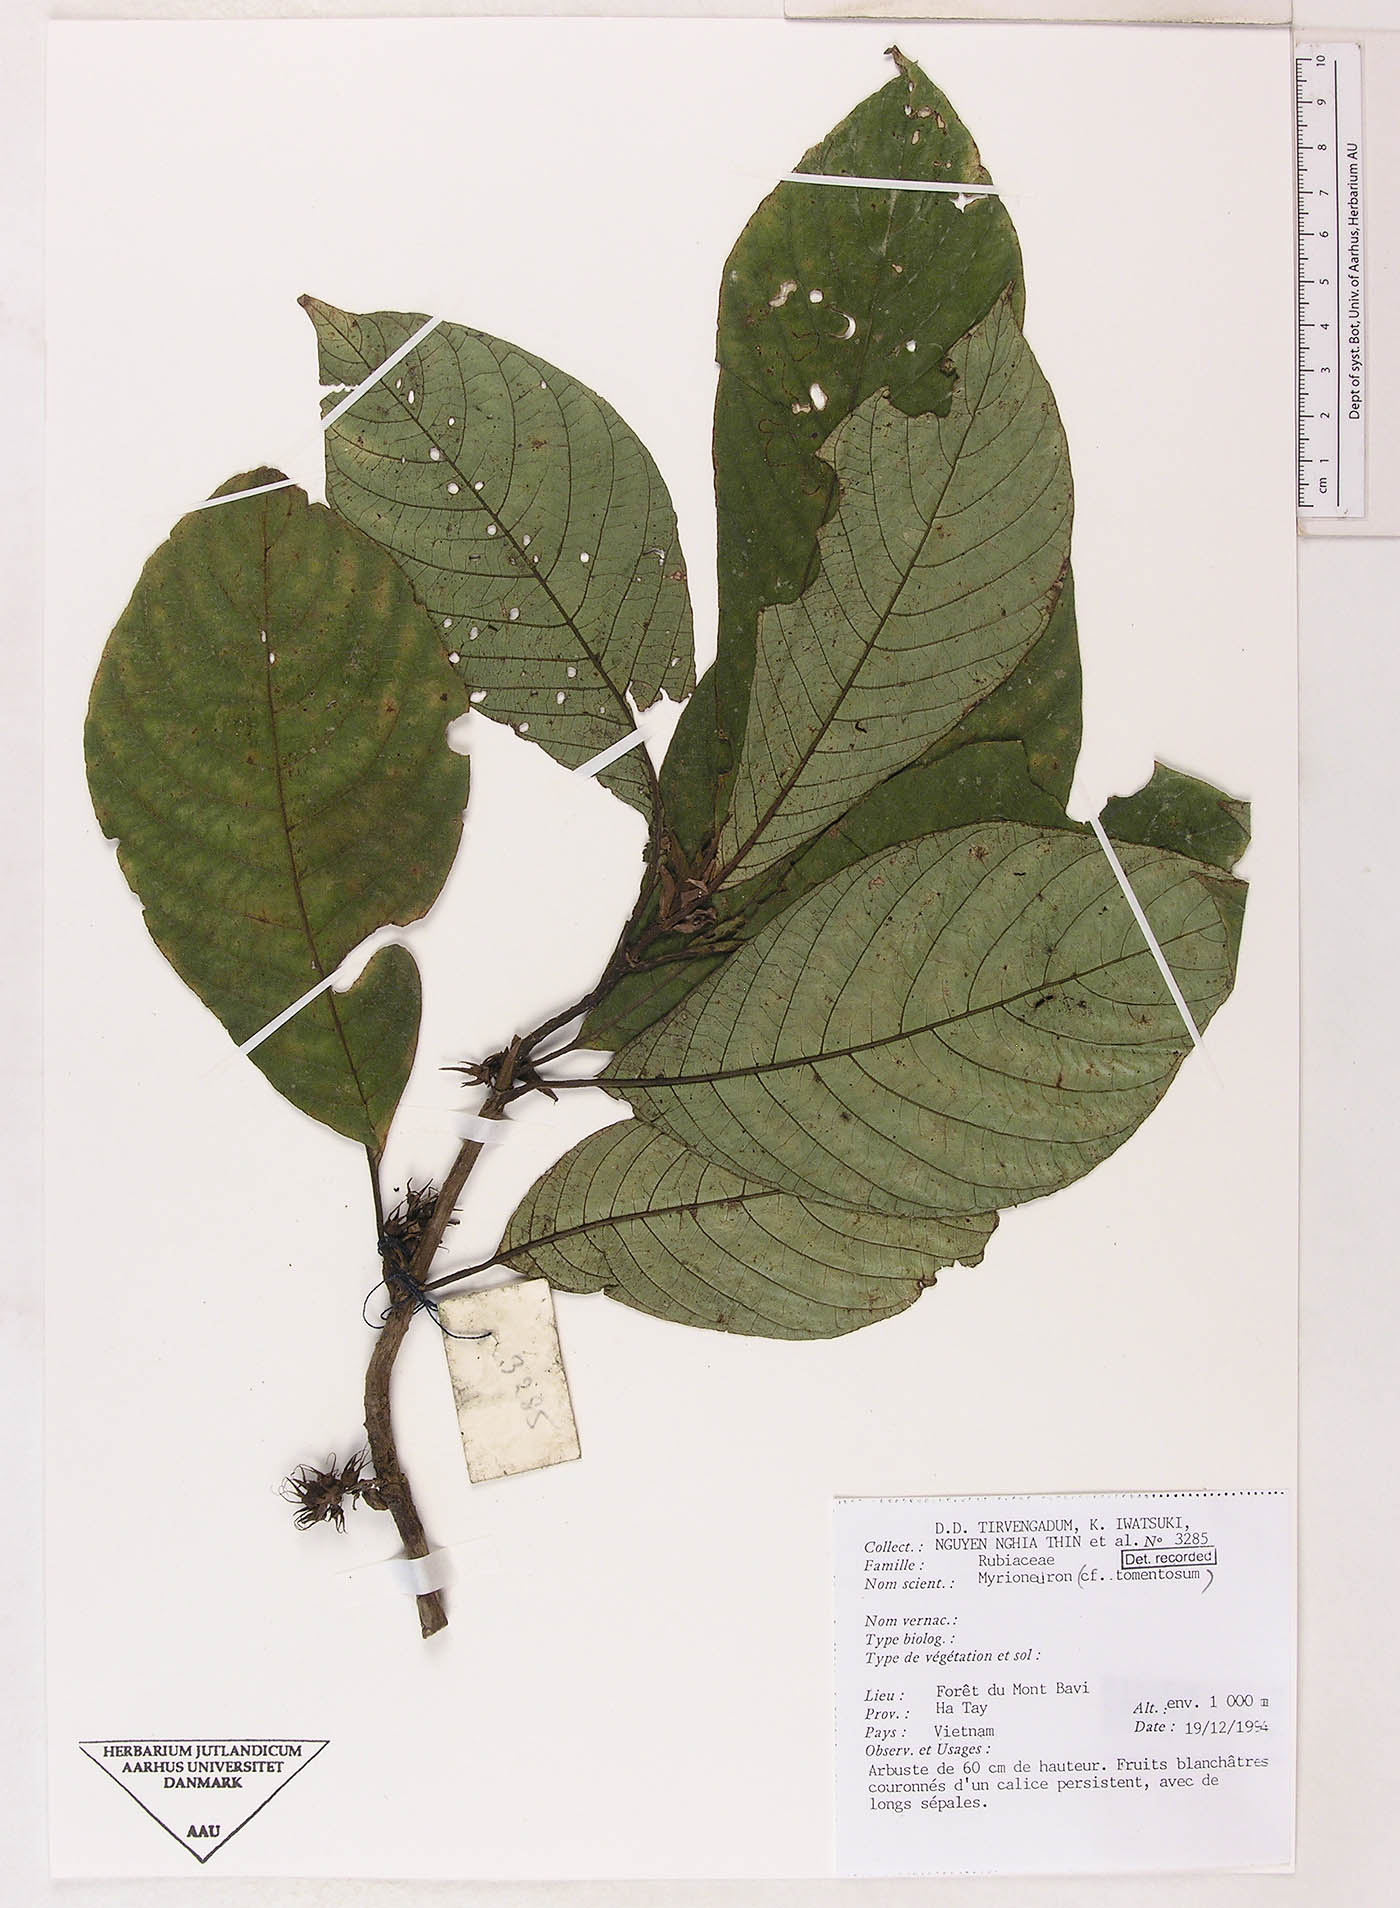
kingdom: Plantae
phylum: Tracheophyta
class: Magnoliopsida
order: Gentianales
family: Rubiaceae
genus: Mycetia
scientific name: Mycetia
